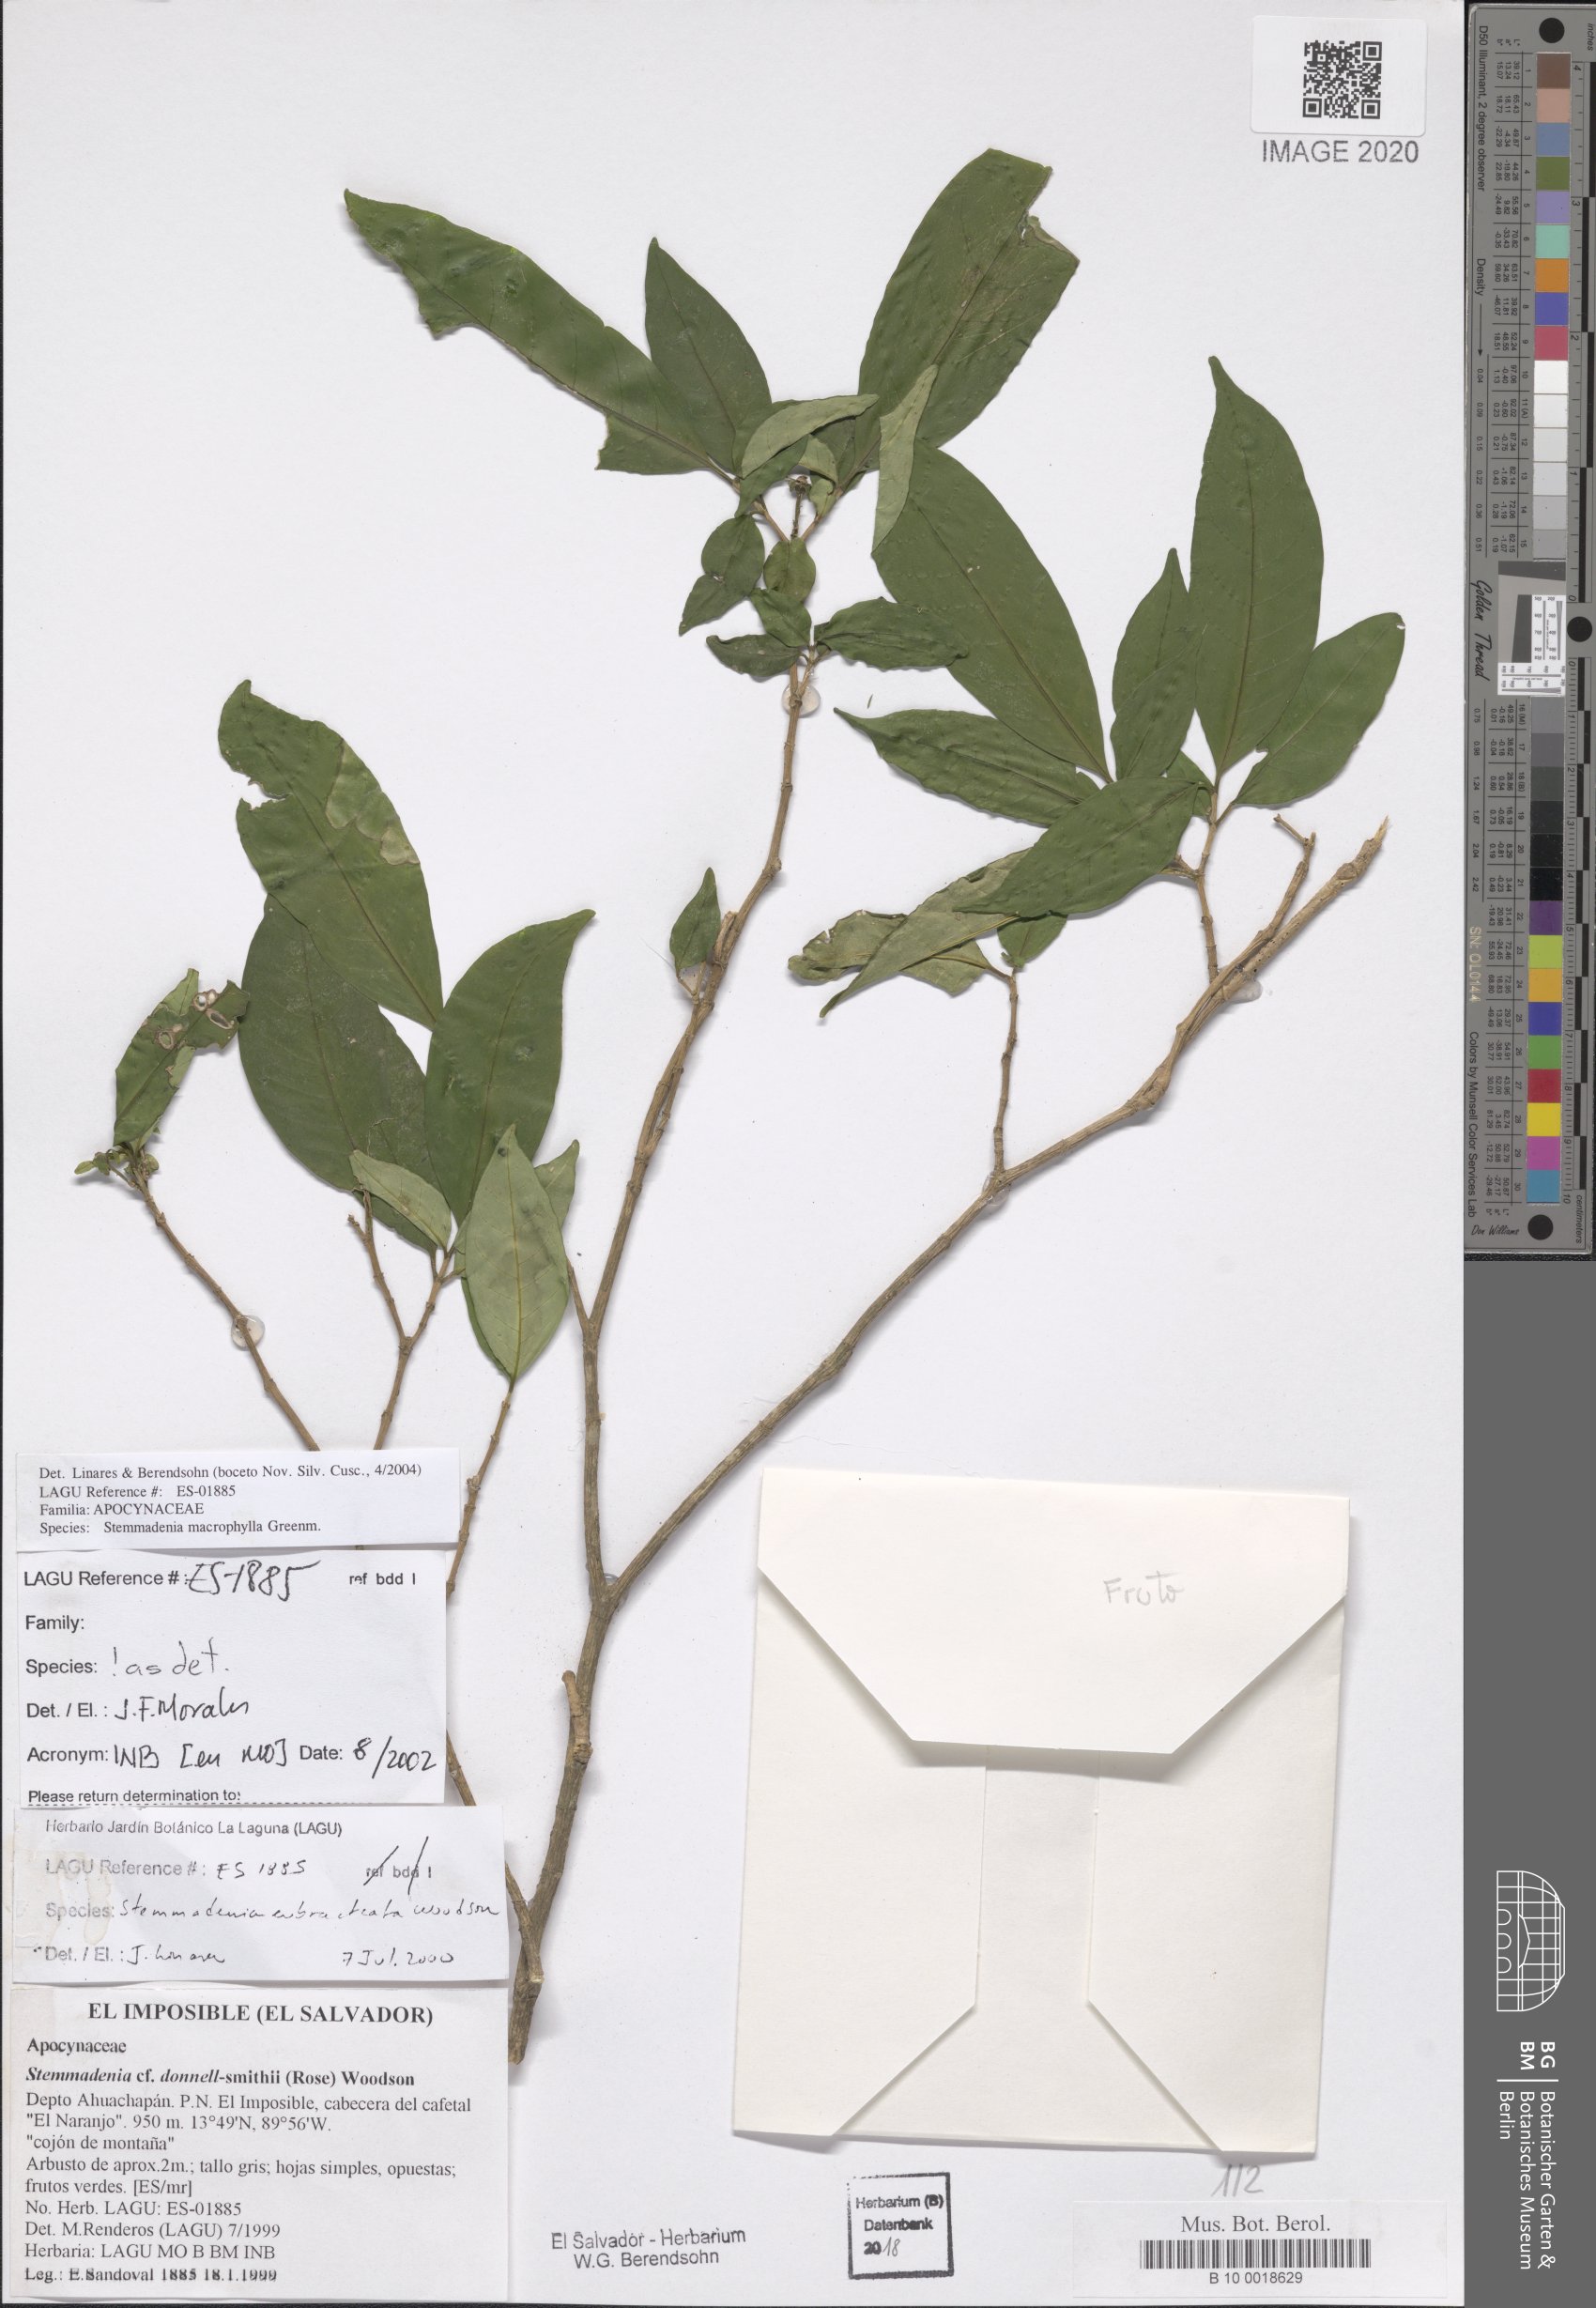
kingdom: Plantae
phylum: Tracheophyta
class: Magnoliopsida
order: Gentianales
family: Apocynaceae
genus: Tabernaemontana
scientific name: Tabernaemontana eubracteata
